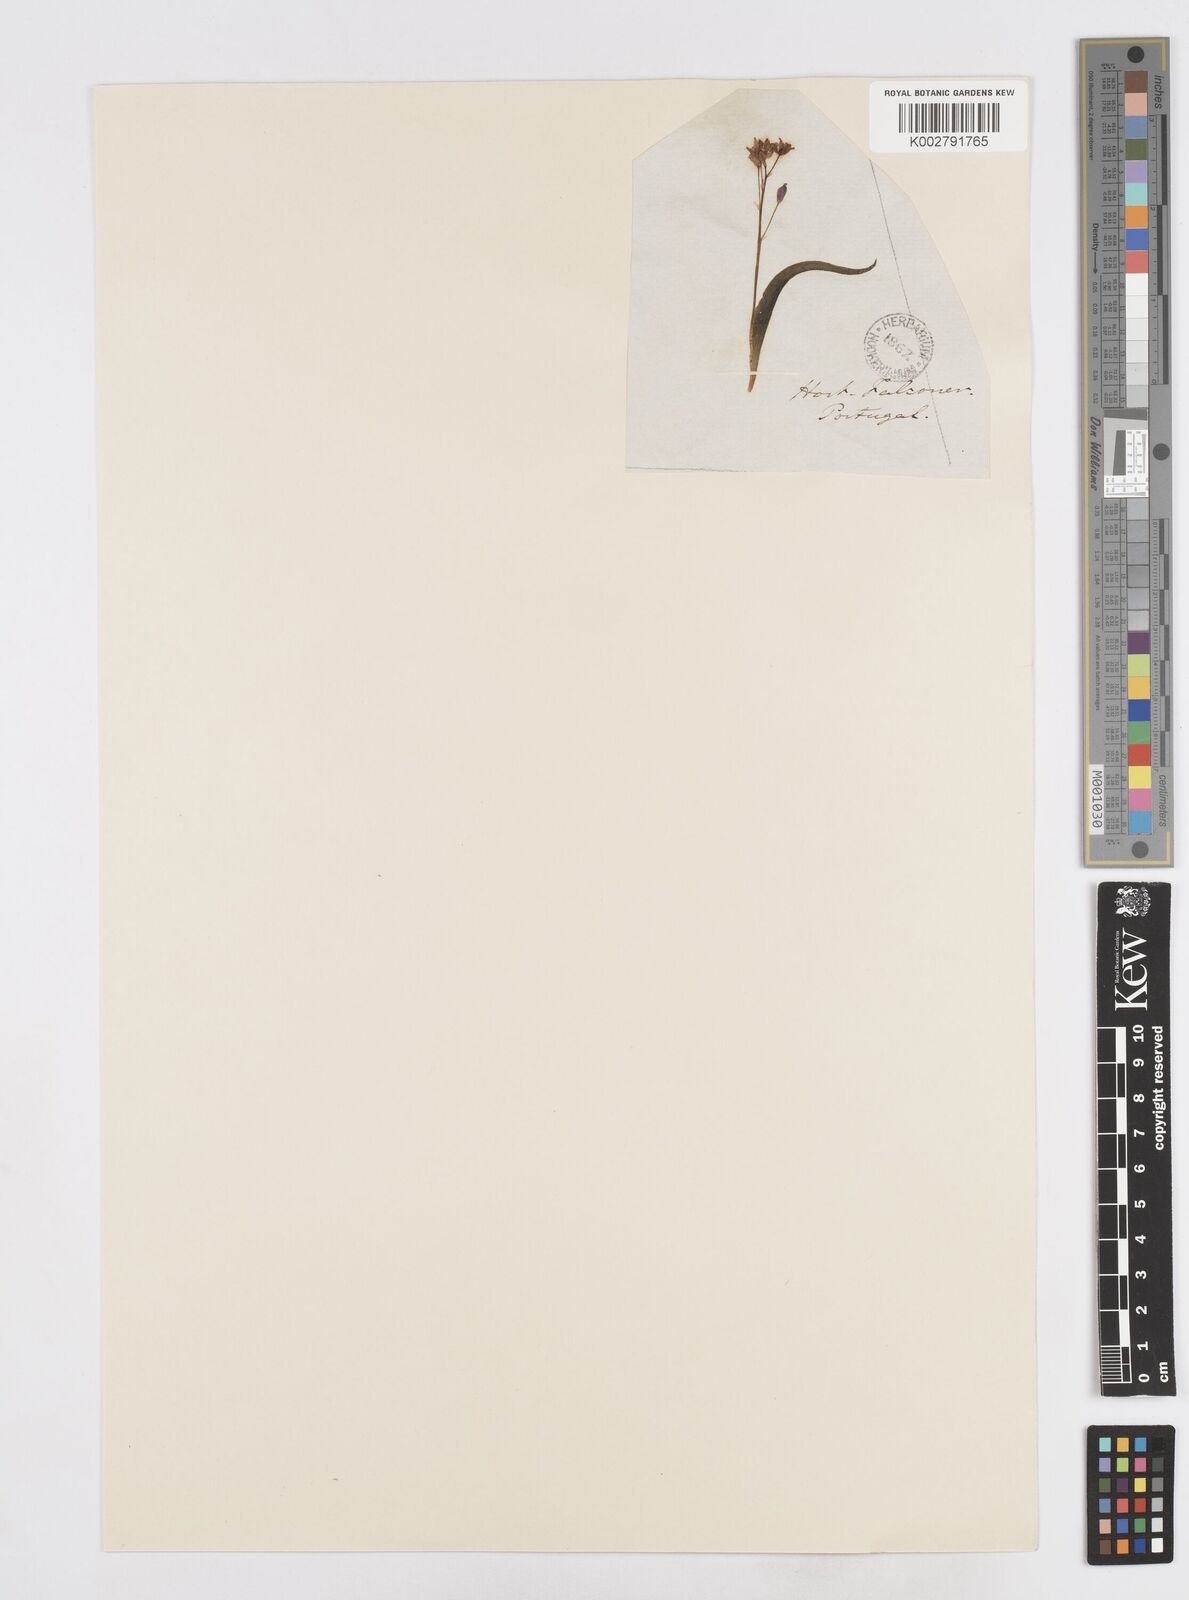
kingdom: Plantae
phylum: Tracheophyta
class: Liliopsida
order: Asparagales
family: Asparagaceae
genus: Scilla
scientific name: Scilla verna
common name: Spring squill
